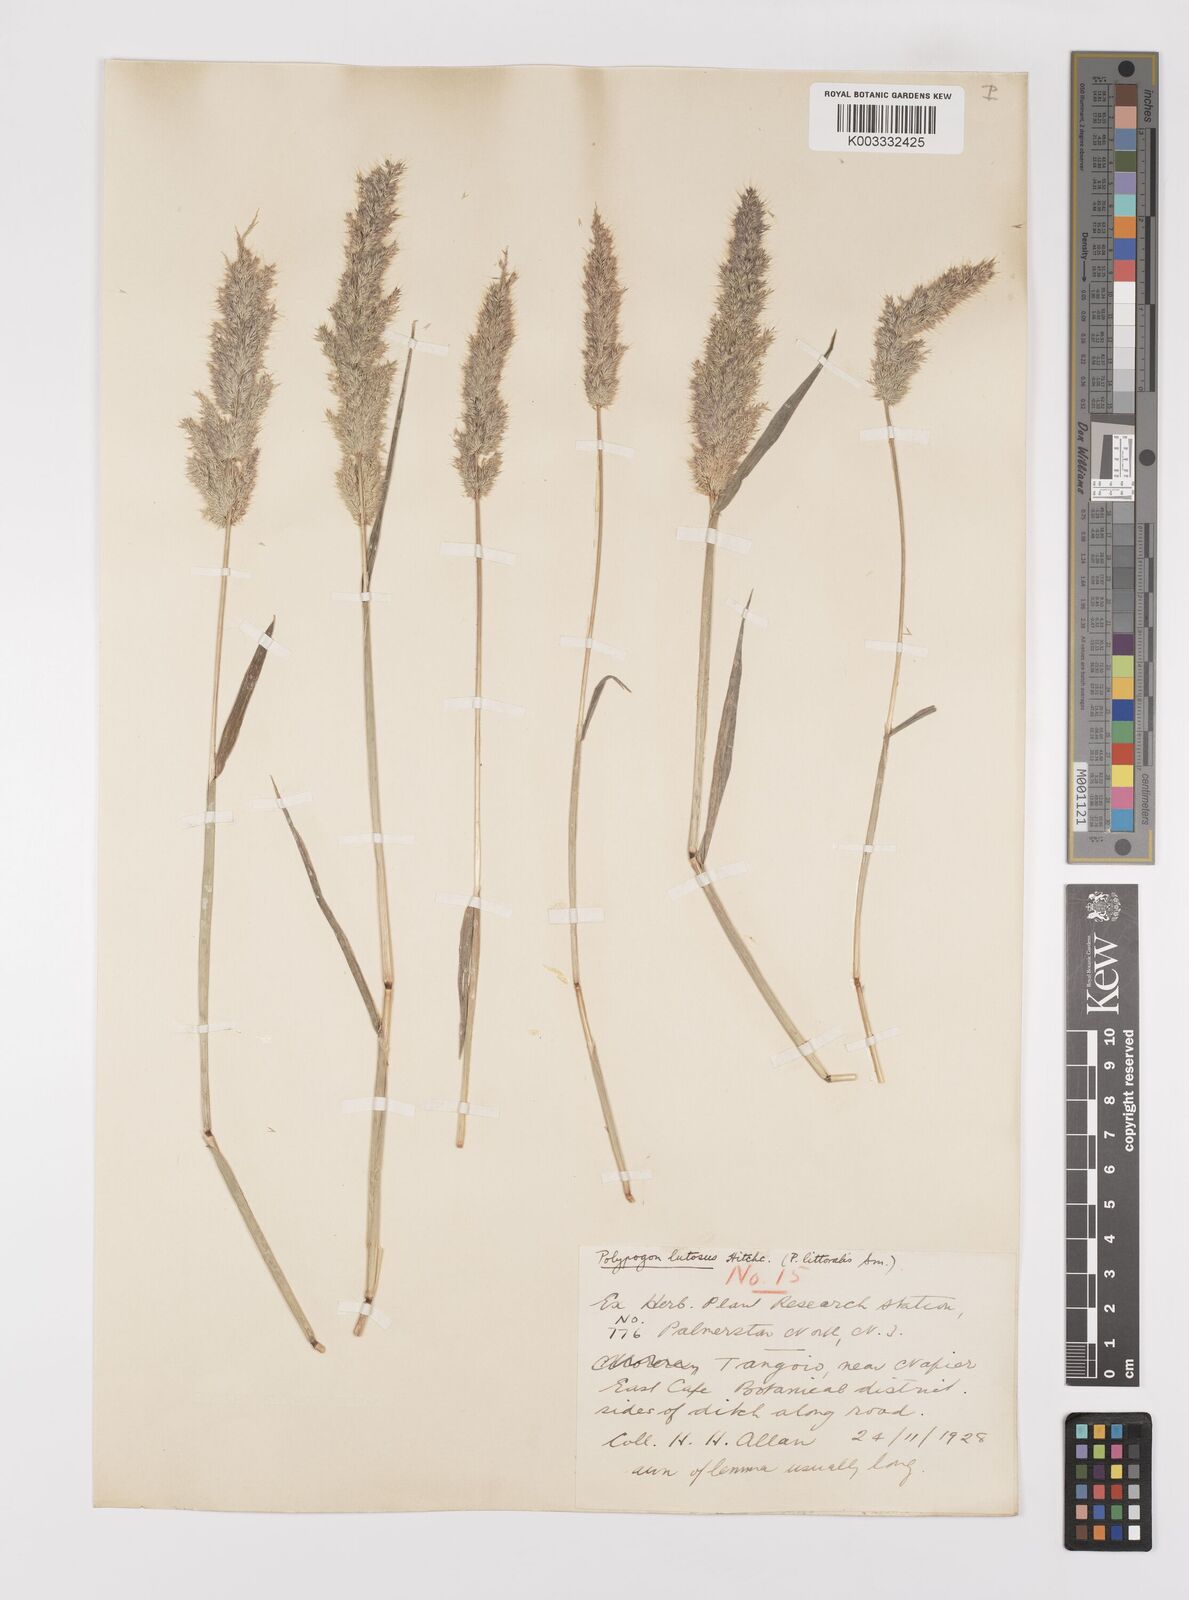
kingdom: Plantae
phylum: Tracheophyta
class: Liliopsida
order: Poales
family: Poaceae
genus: Polypogon
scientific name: Polypogon fugax
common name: Asia minor bluegrass
